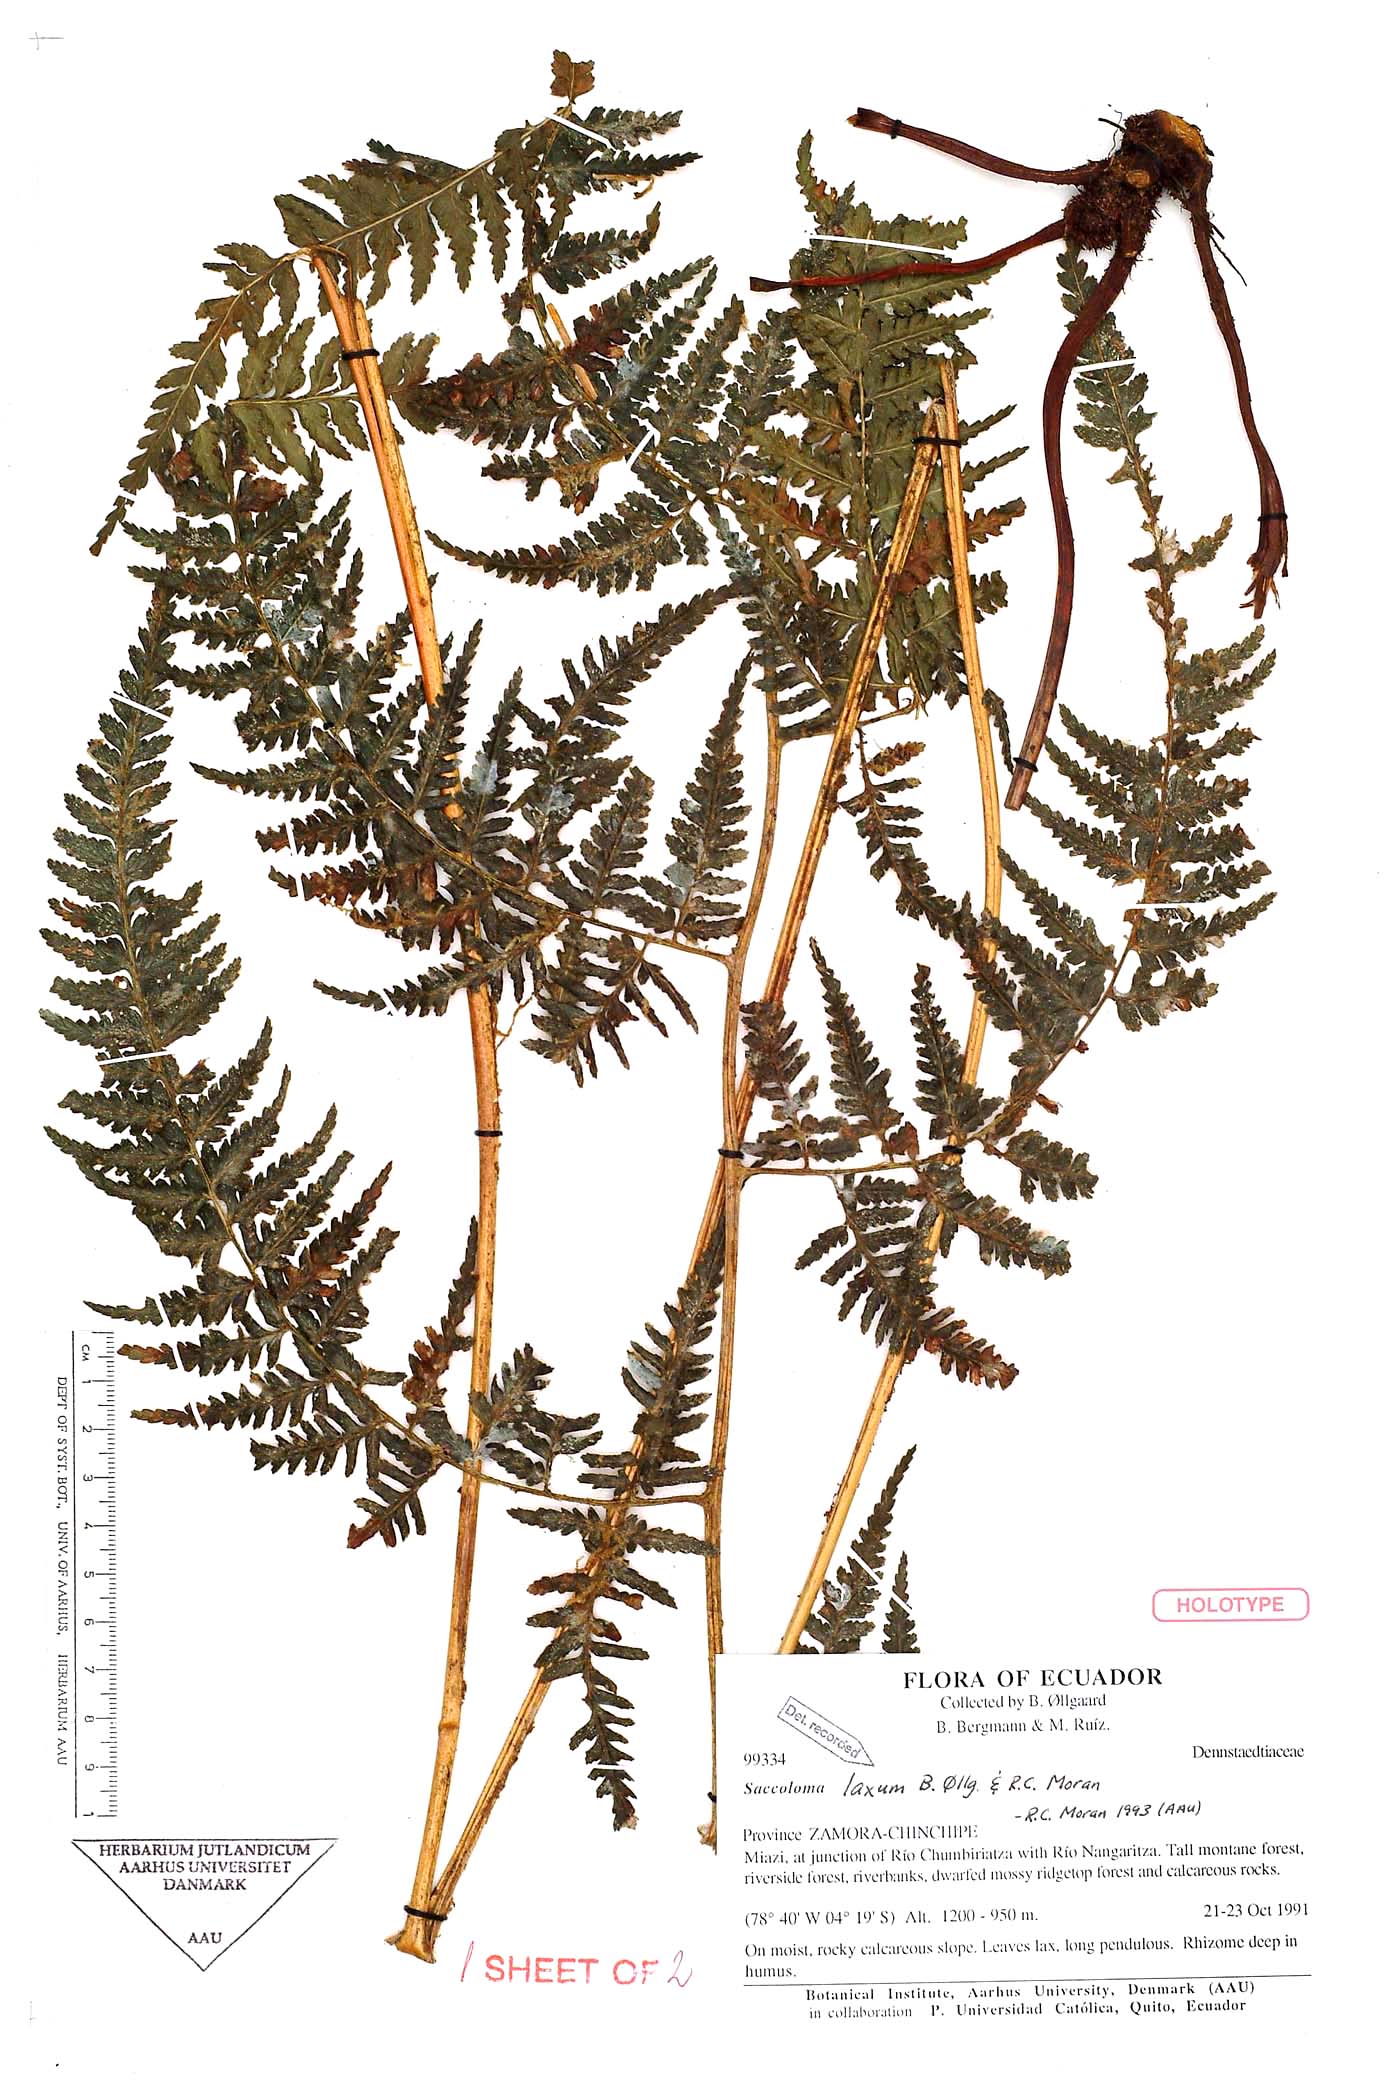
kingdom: Plantae
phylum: Tracheophyta
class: Polypodiopsida
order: Polypodiales
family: Saccolomataceae
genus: Saccoloma
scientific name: Saccoloma laxum
